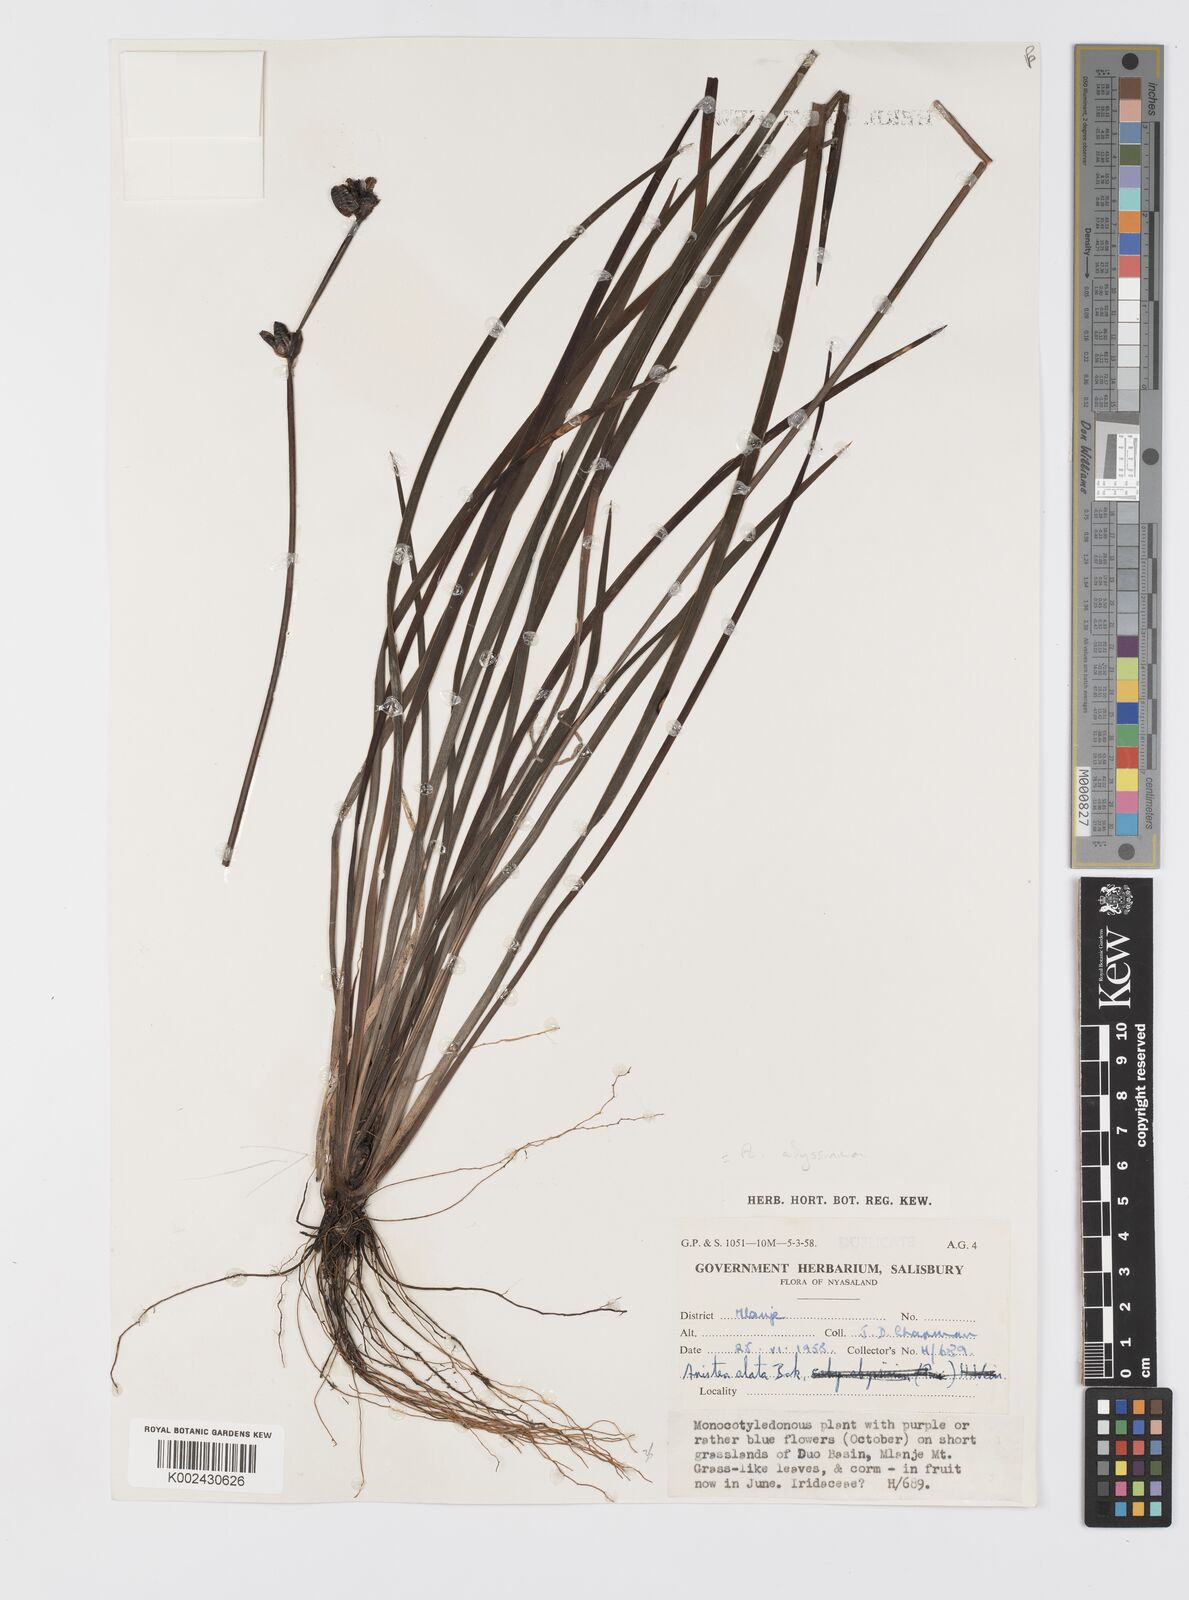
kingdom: Plantae
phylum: Tracheophyta
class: Liliopsida
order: Asparagales
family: Iridaceae
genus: Aristea
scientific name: Aristea abyssinica
